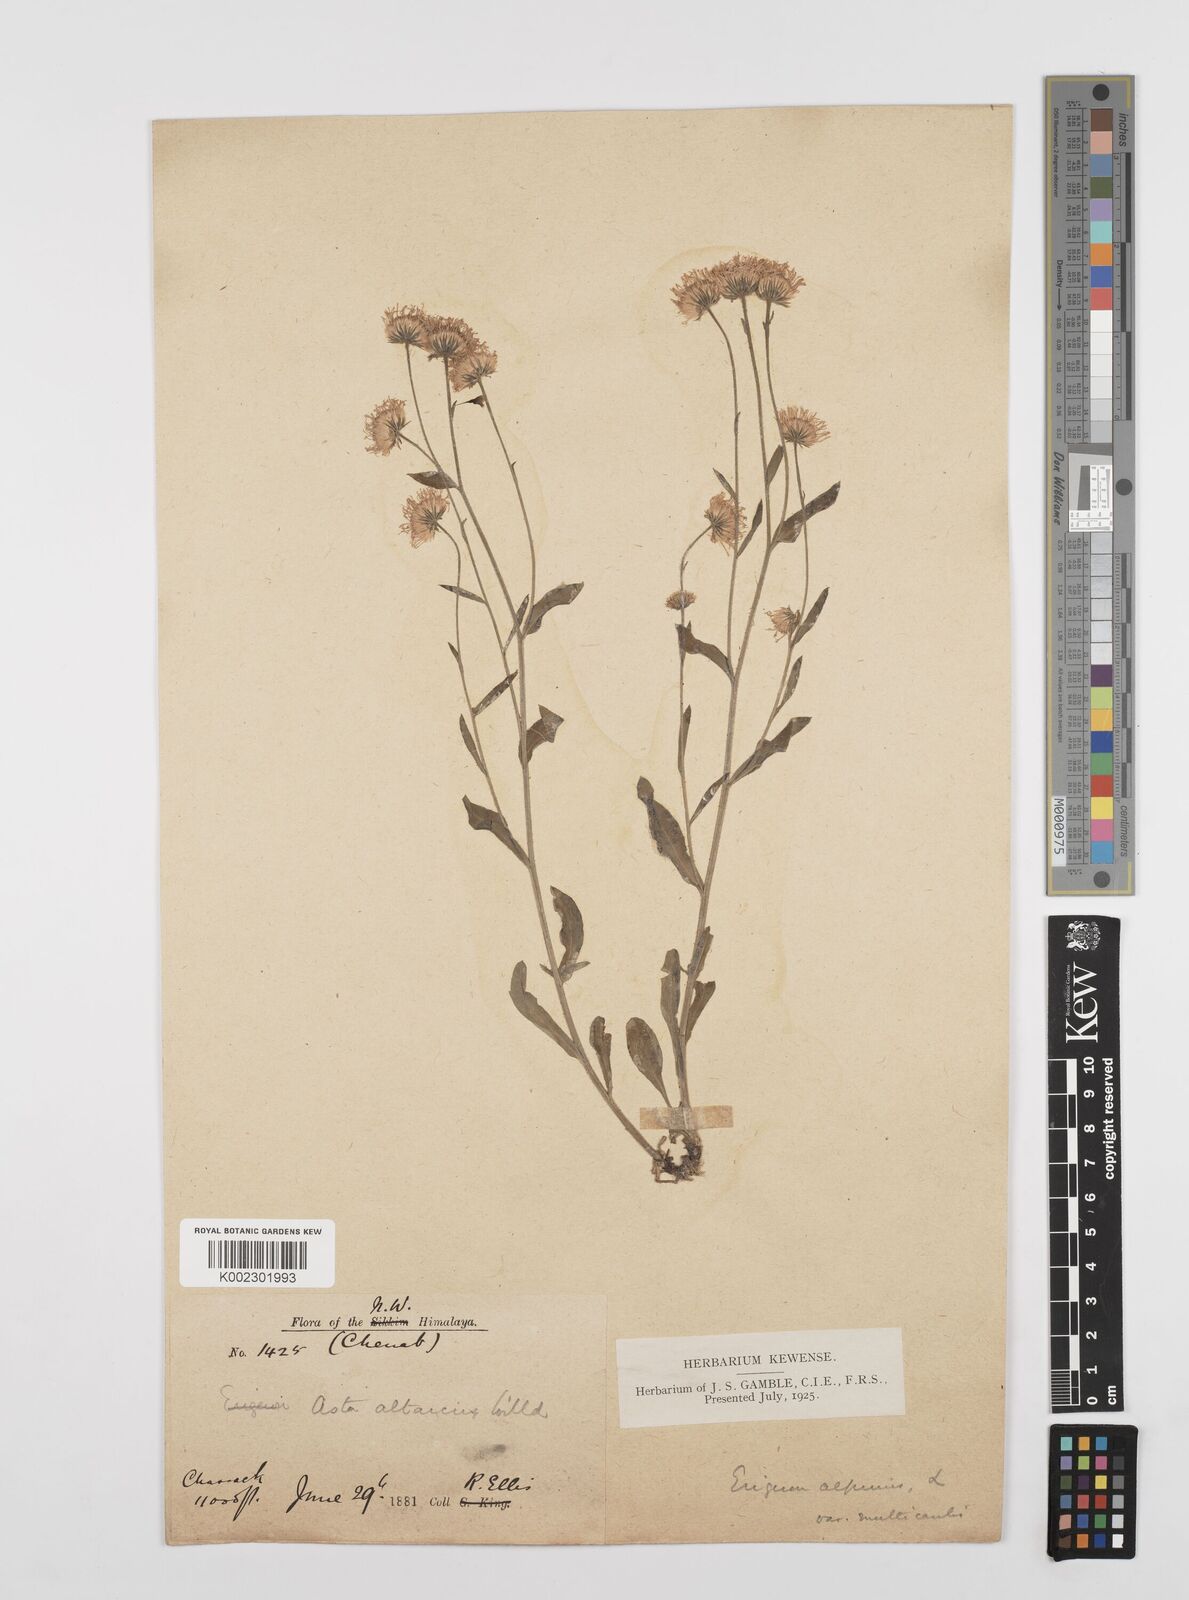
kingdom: Plantae
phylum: Tracheophyta
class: Magnoliopsida
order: Asterales
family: Asteraceae
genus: Erigeron
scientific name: Erigeron alpinus
